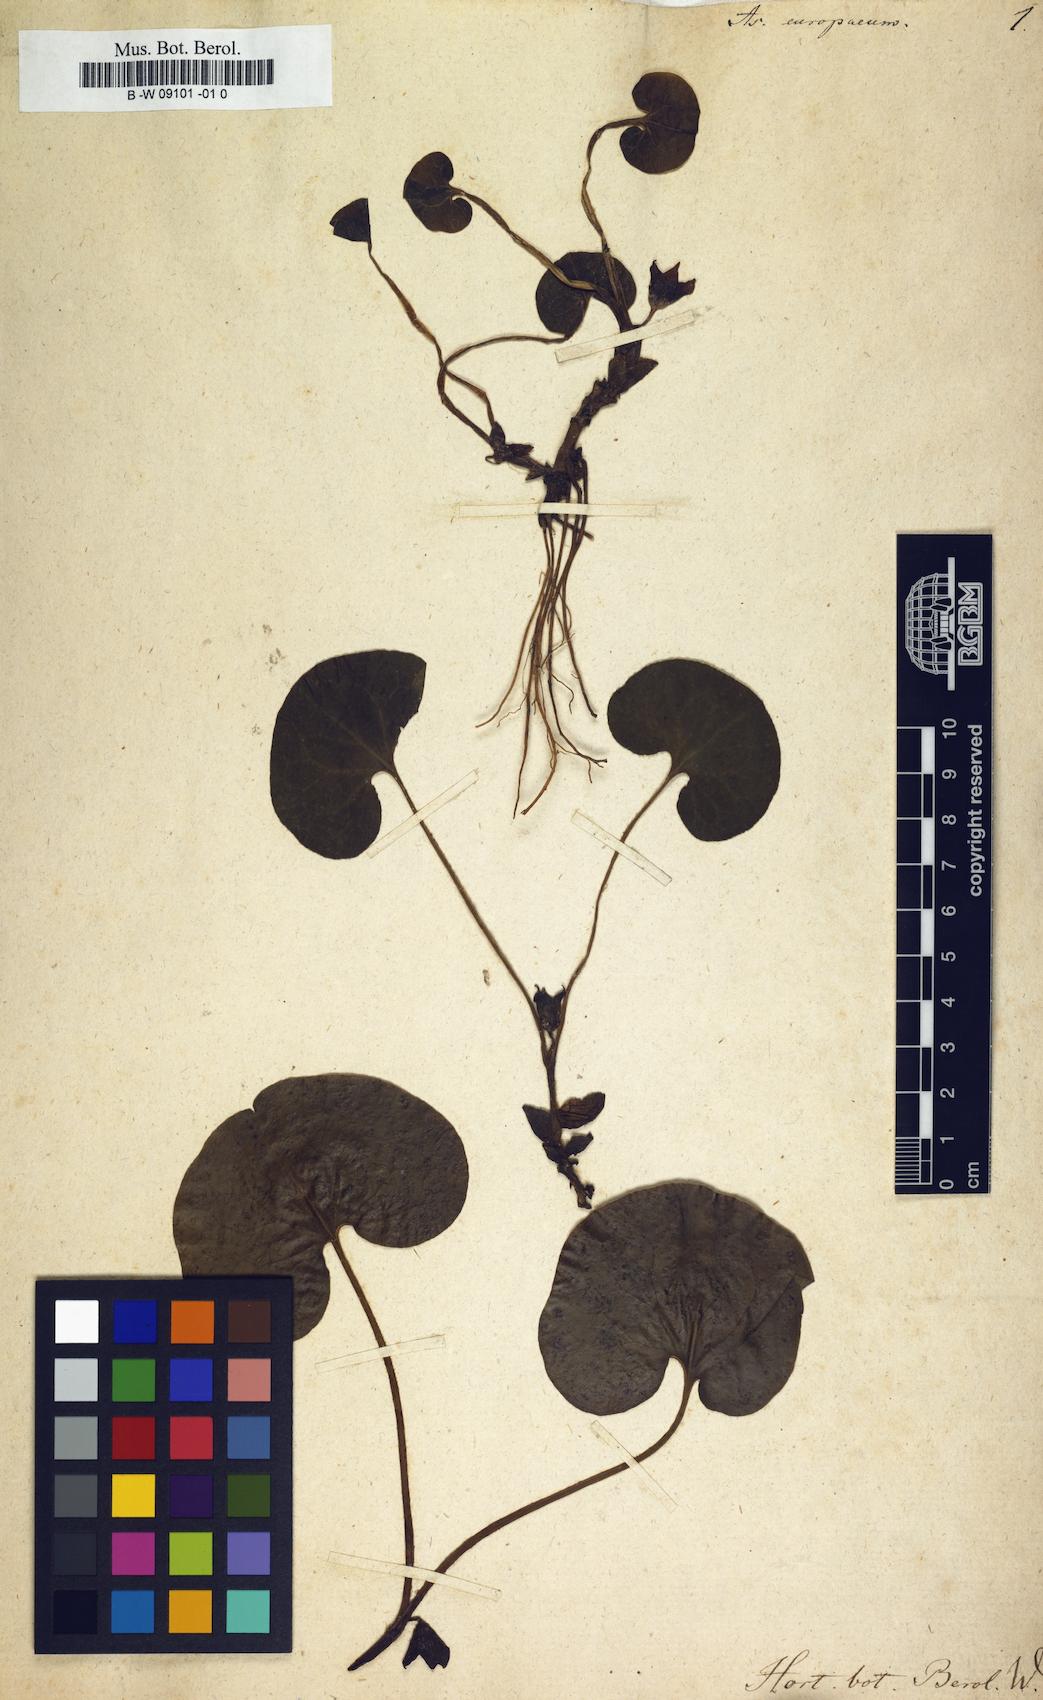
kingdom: Plantae
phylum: Tracheophyta
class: Magnoliopsida
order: Piperales
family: Aristolochiaceae
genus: Asarum
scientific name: Asarum europaeum
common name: Asarabacca
